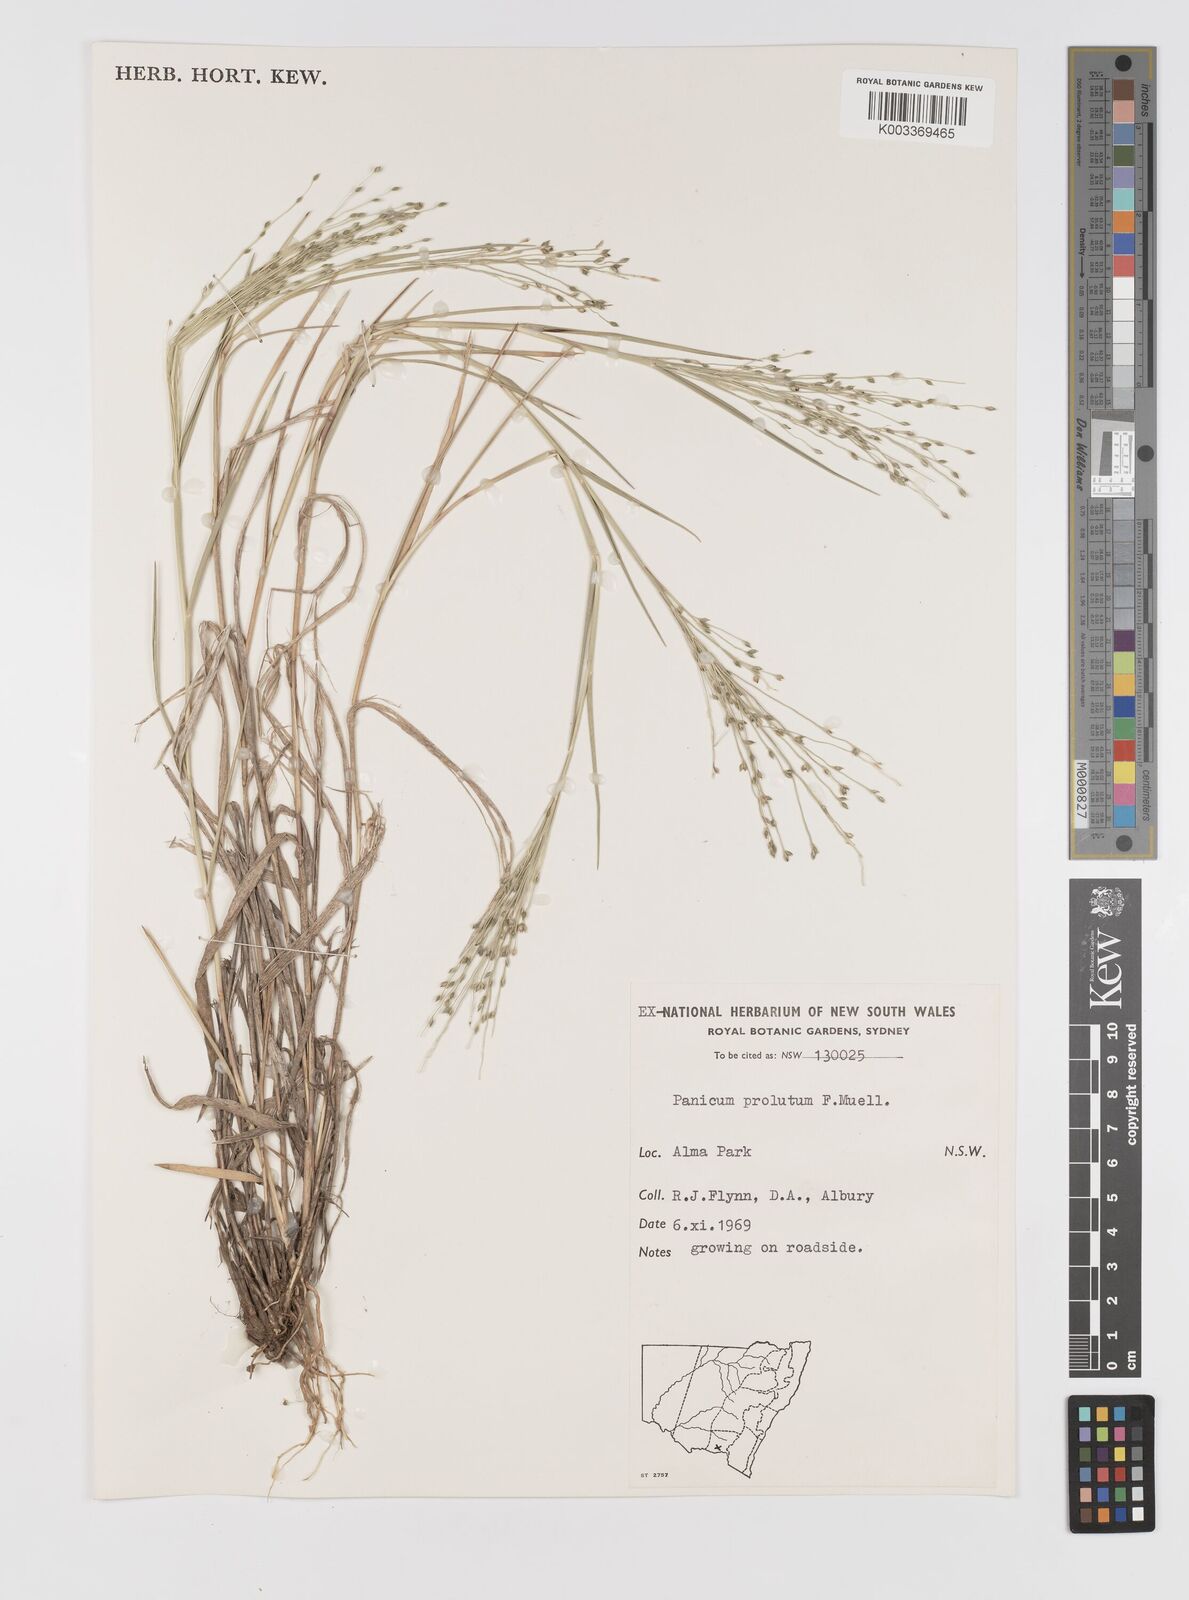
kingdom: Plantae
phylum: Tracheophyta
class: Liliopsida
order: Poales
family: Poaceae
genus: Walwhalleya
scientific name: Walwhalleya proluta
